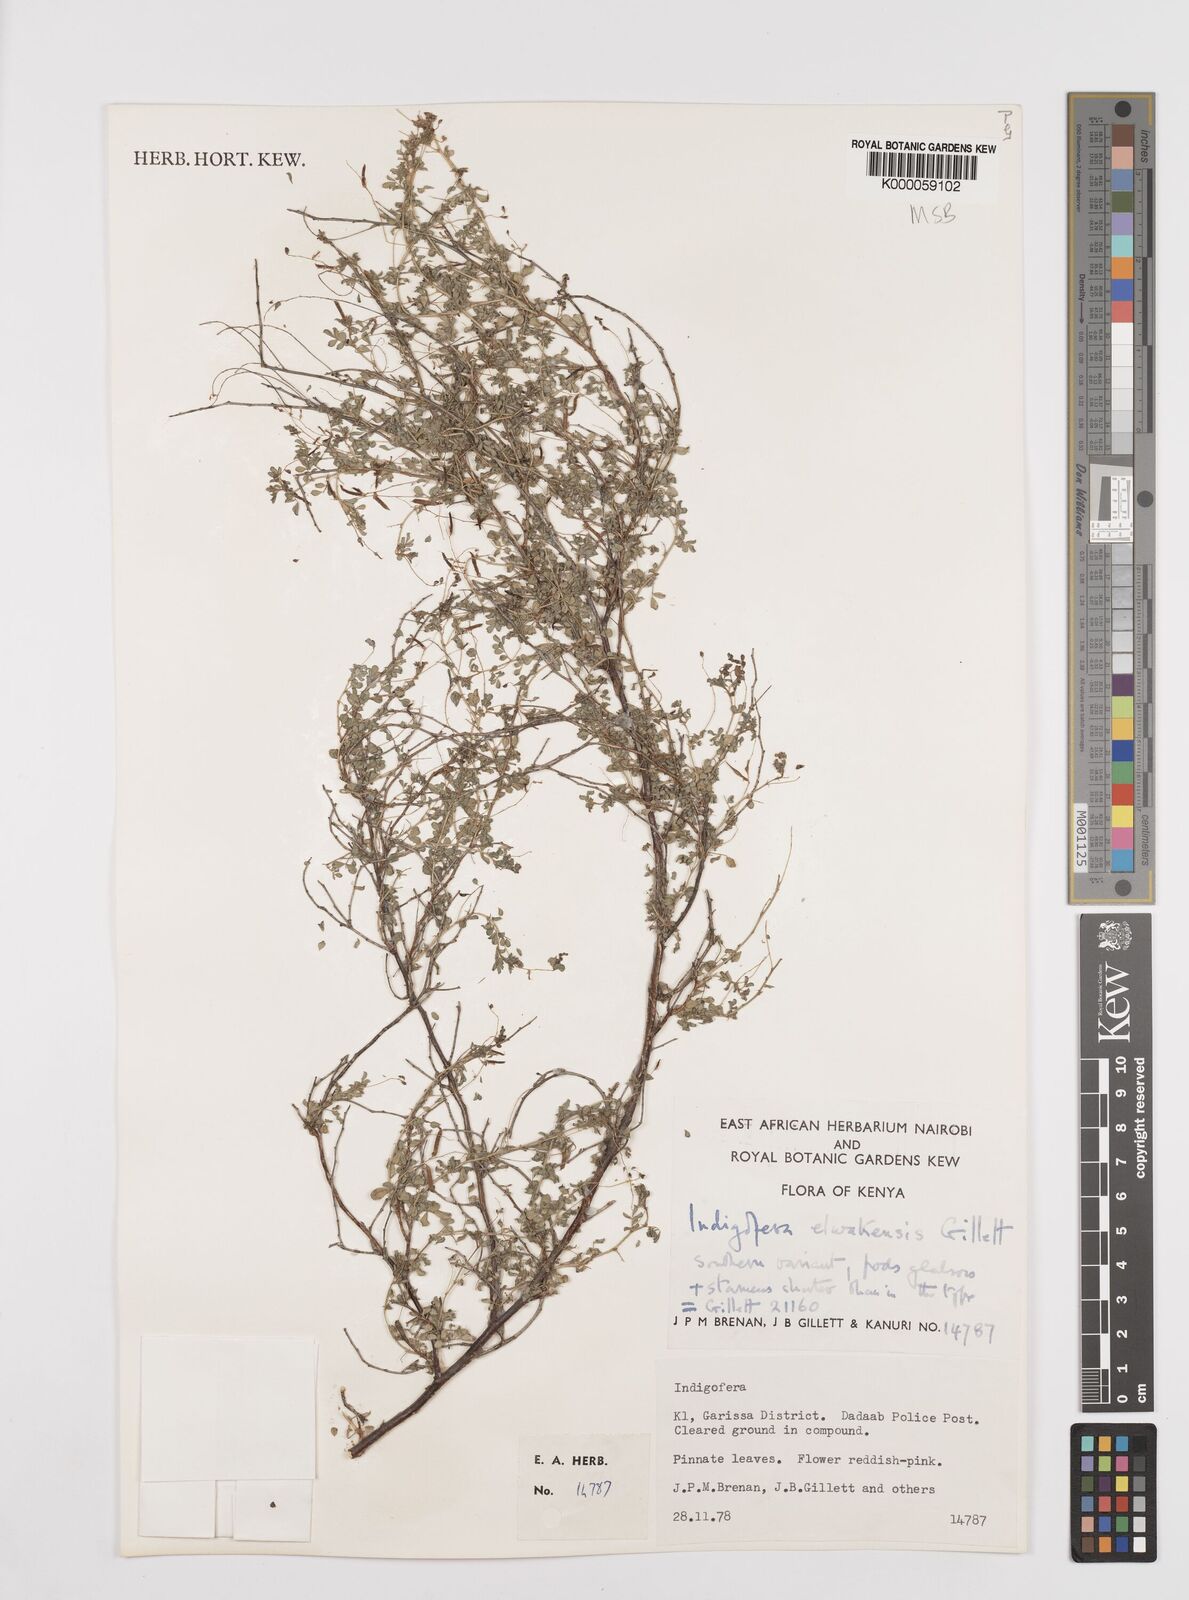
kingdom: Plantae
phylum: Tracheophyta
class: Magnoliopsida
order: Fabales
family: Fabaceae
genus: Indigofera
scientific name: Indigofera elwakensis
